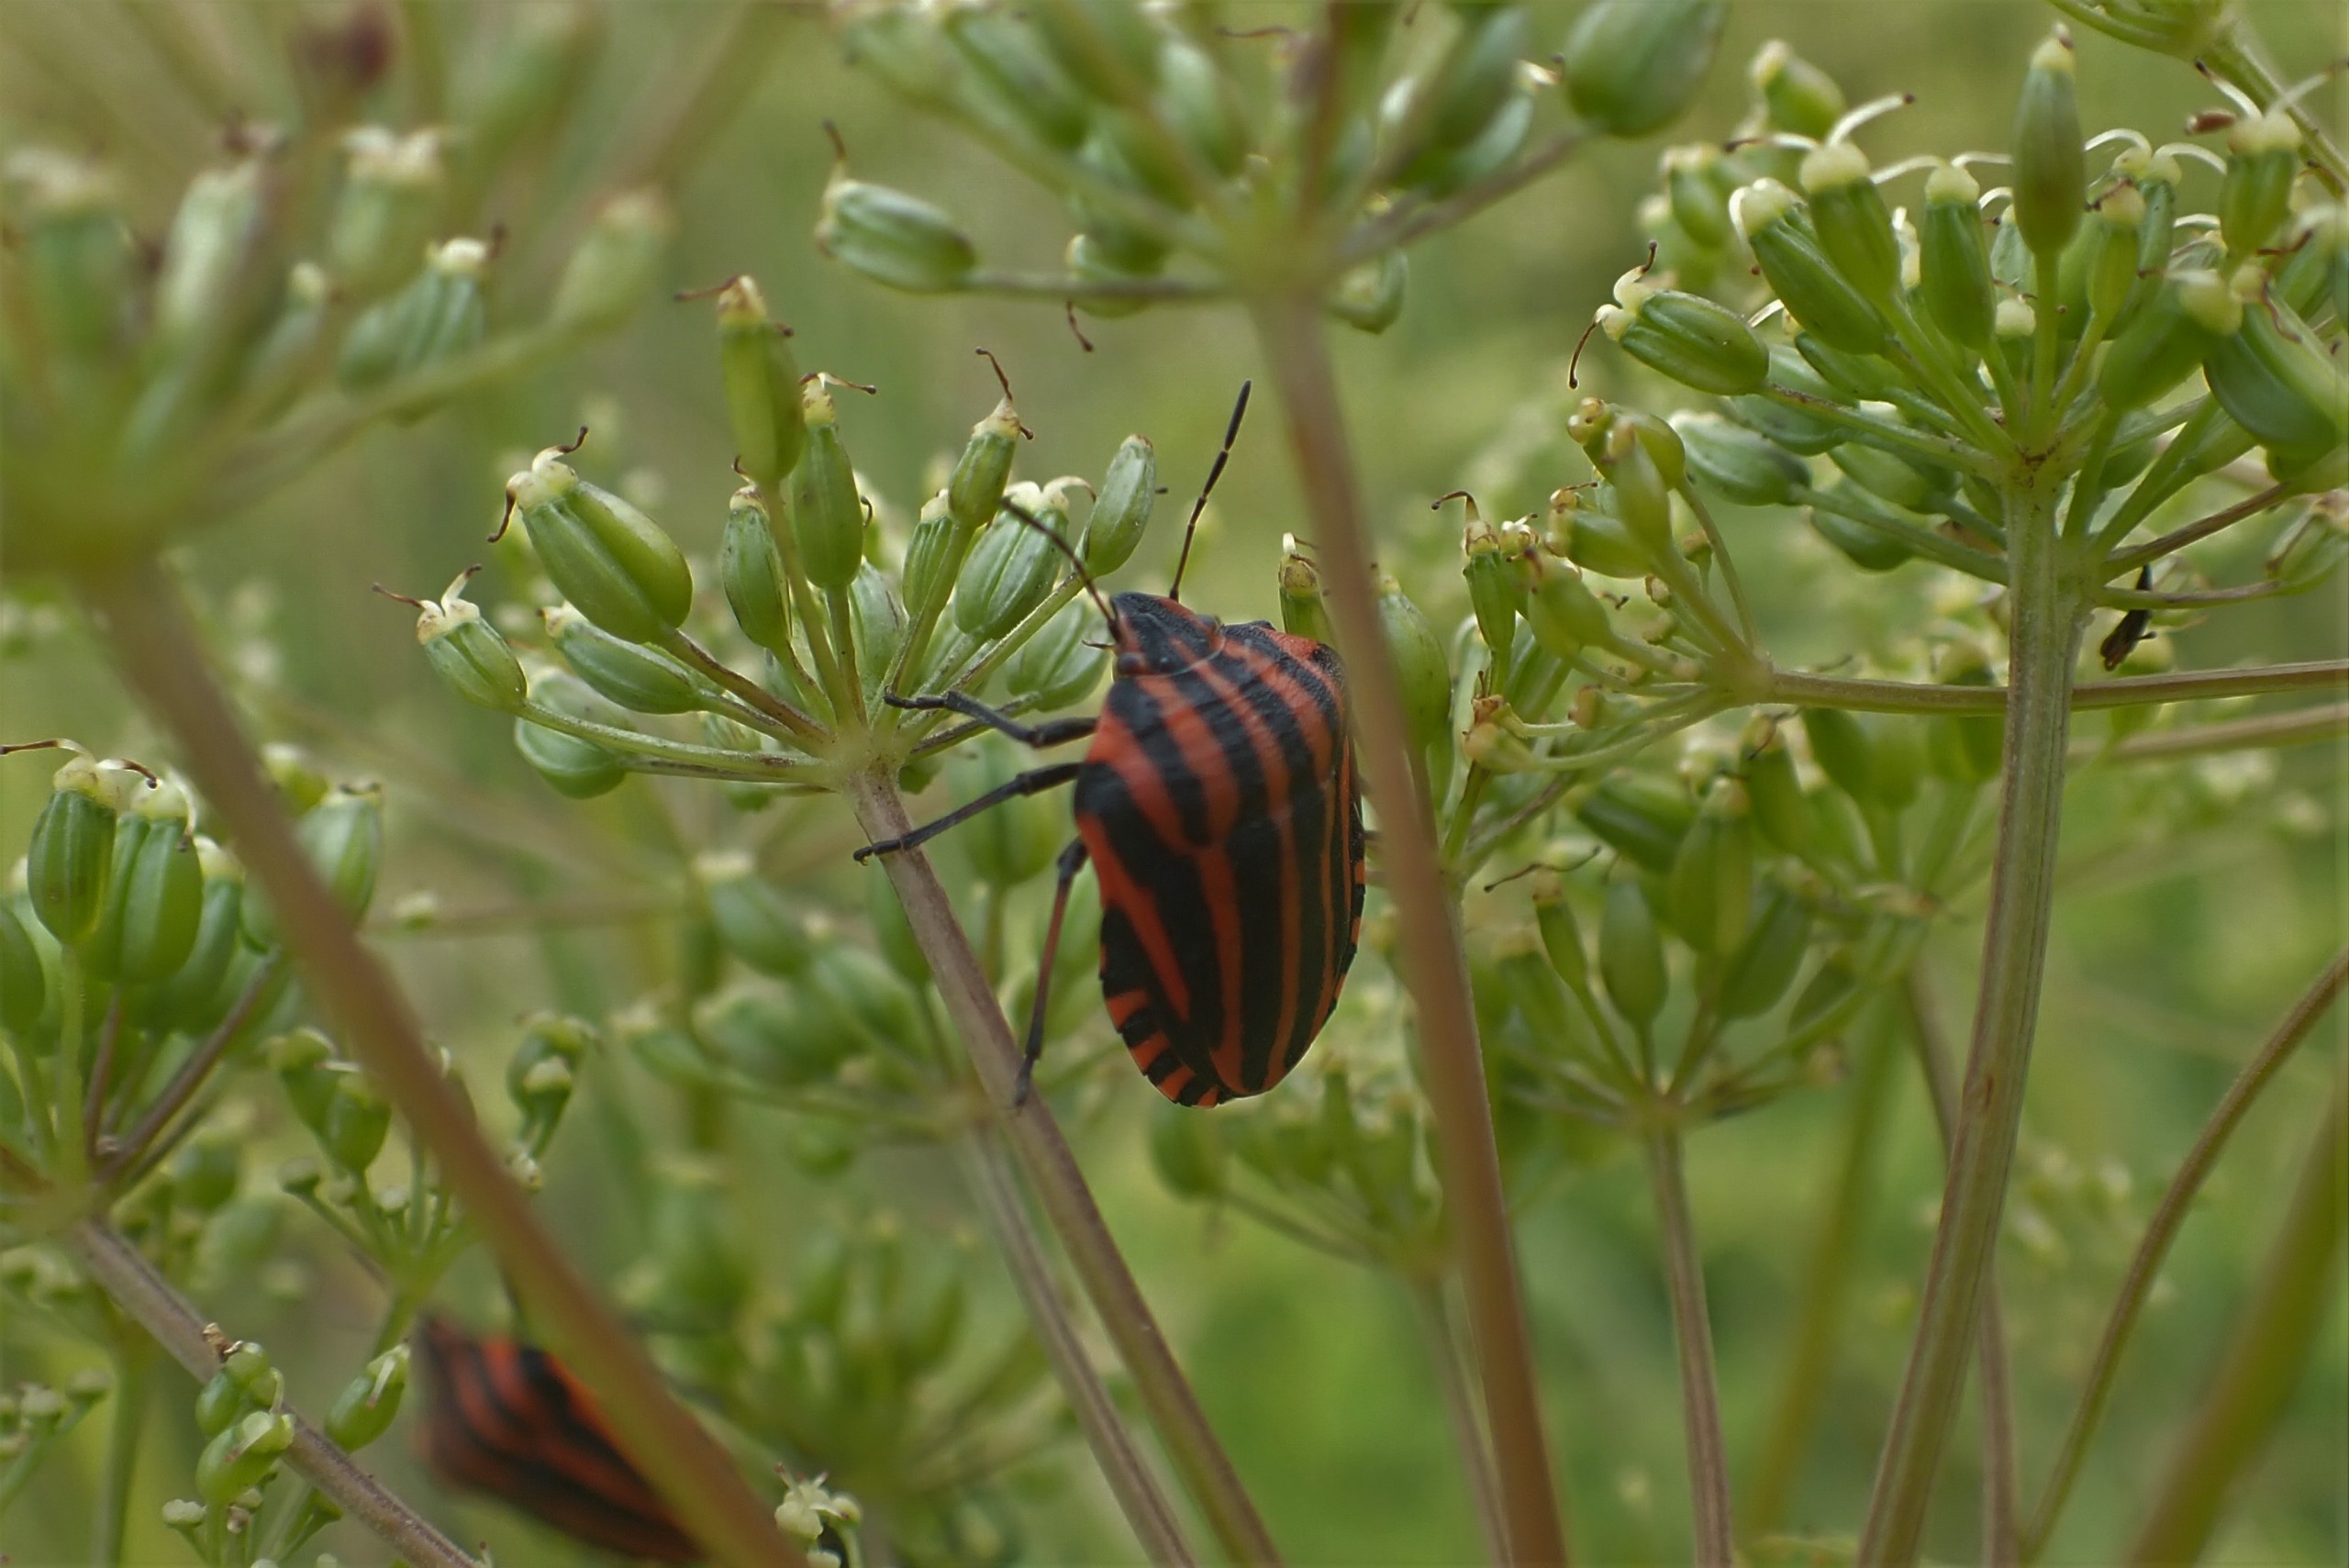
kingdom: Animalia
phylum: Arthropoda
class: Insecta
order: Hemiptera
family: Pentatomidae
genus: Graphosoma
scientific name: Graphosoma italicum
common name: Stribetæge
